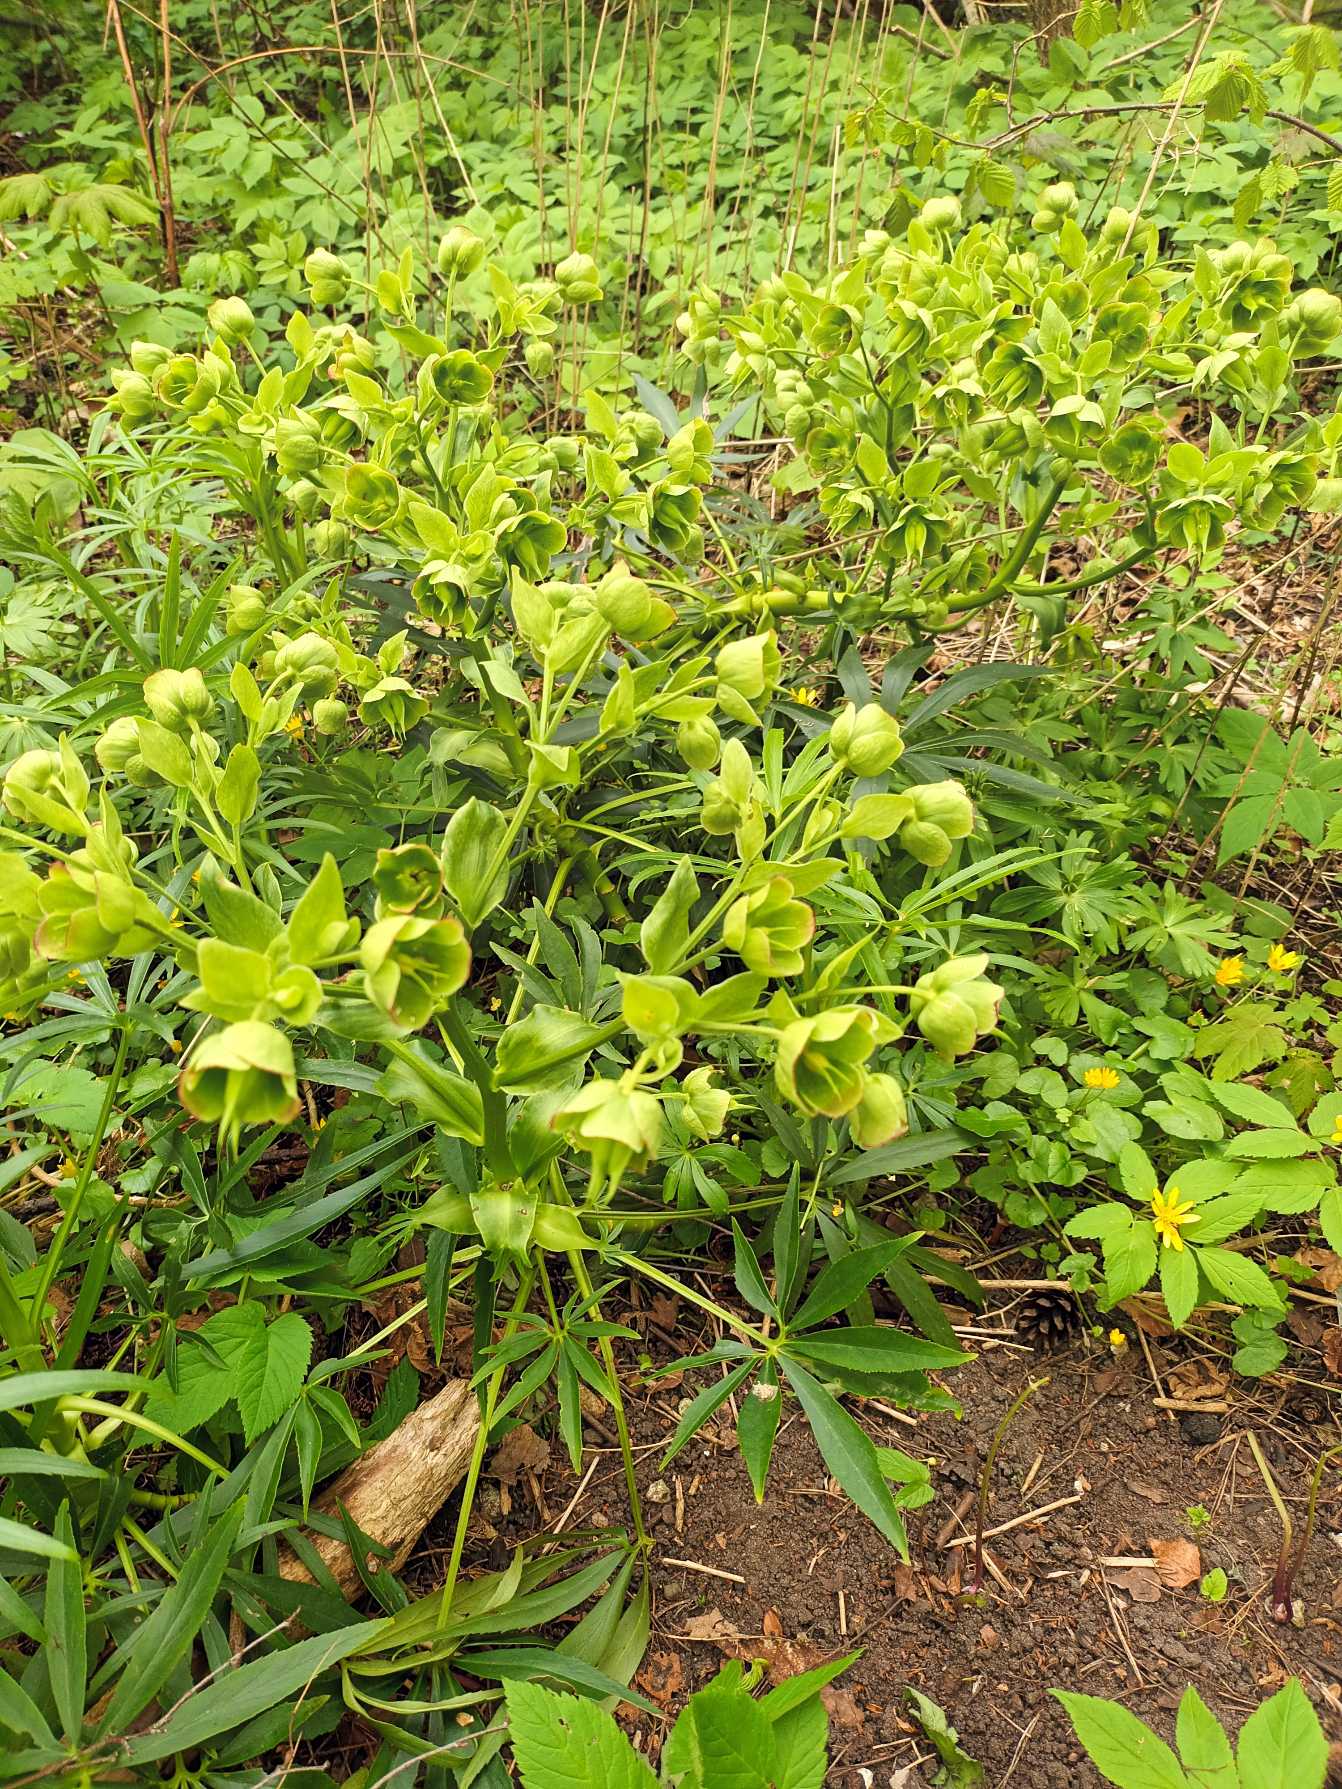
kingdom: Plantae
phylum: Tracheophyta
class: Magnoliopsida
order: Ranunculales
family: Ranunculaceae
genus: Helleborus
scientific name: Helleborus foetidus
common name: Stinkende julerose
